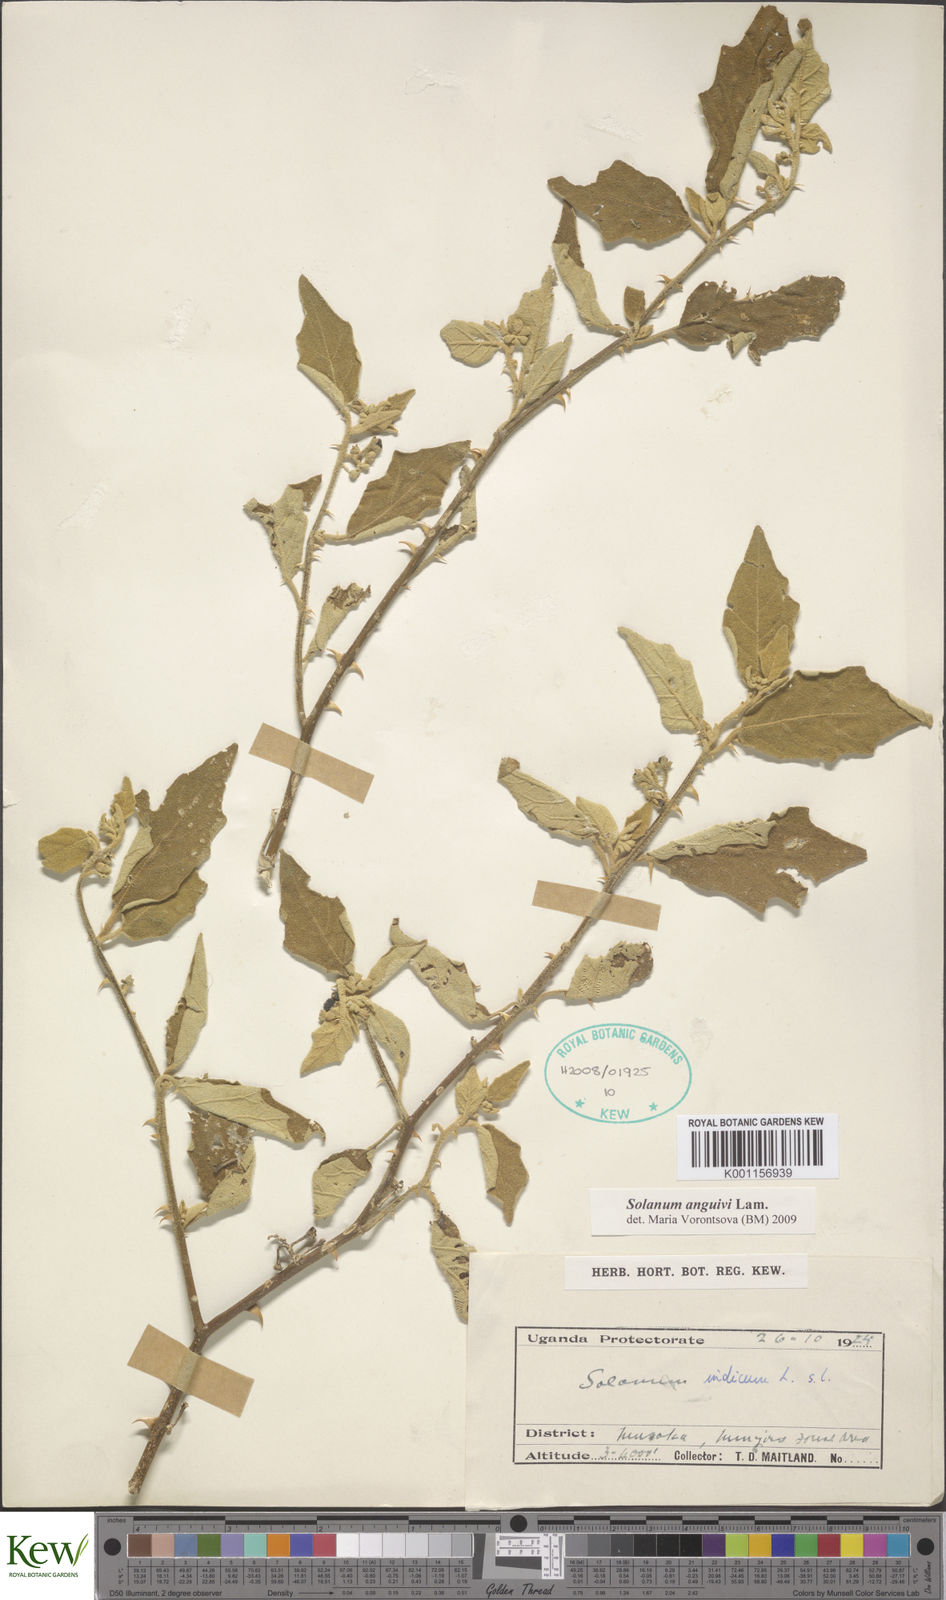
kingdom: Plantae
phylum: Tracheophyta
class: Magnoliopsida
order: Solanales
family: Solanaceae
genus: Solanum
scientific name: Solanum anguivi
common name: Forest bitterberry
